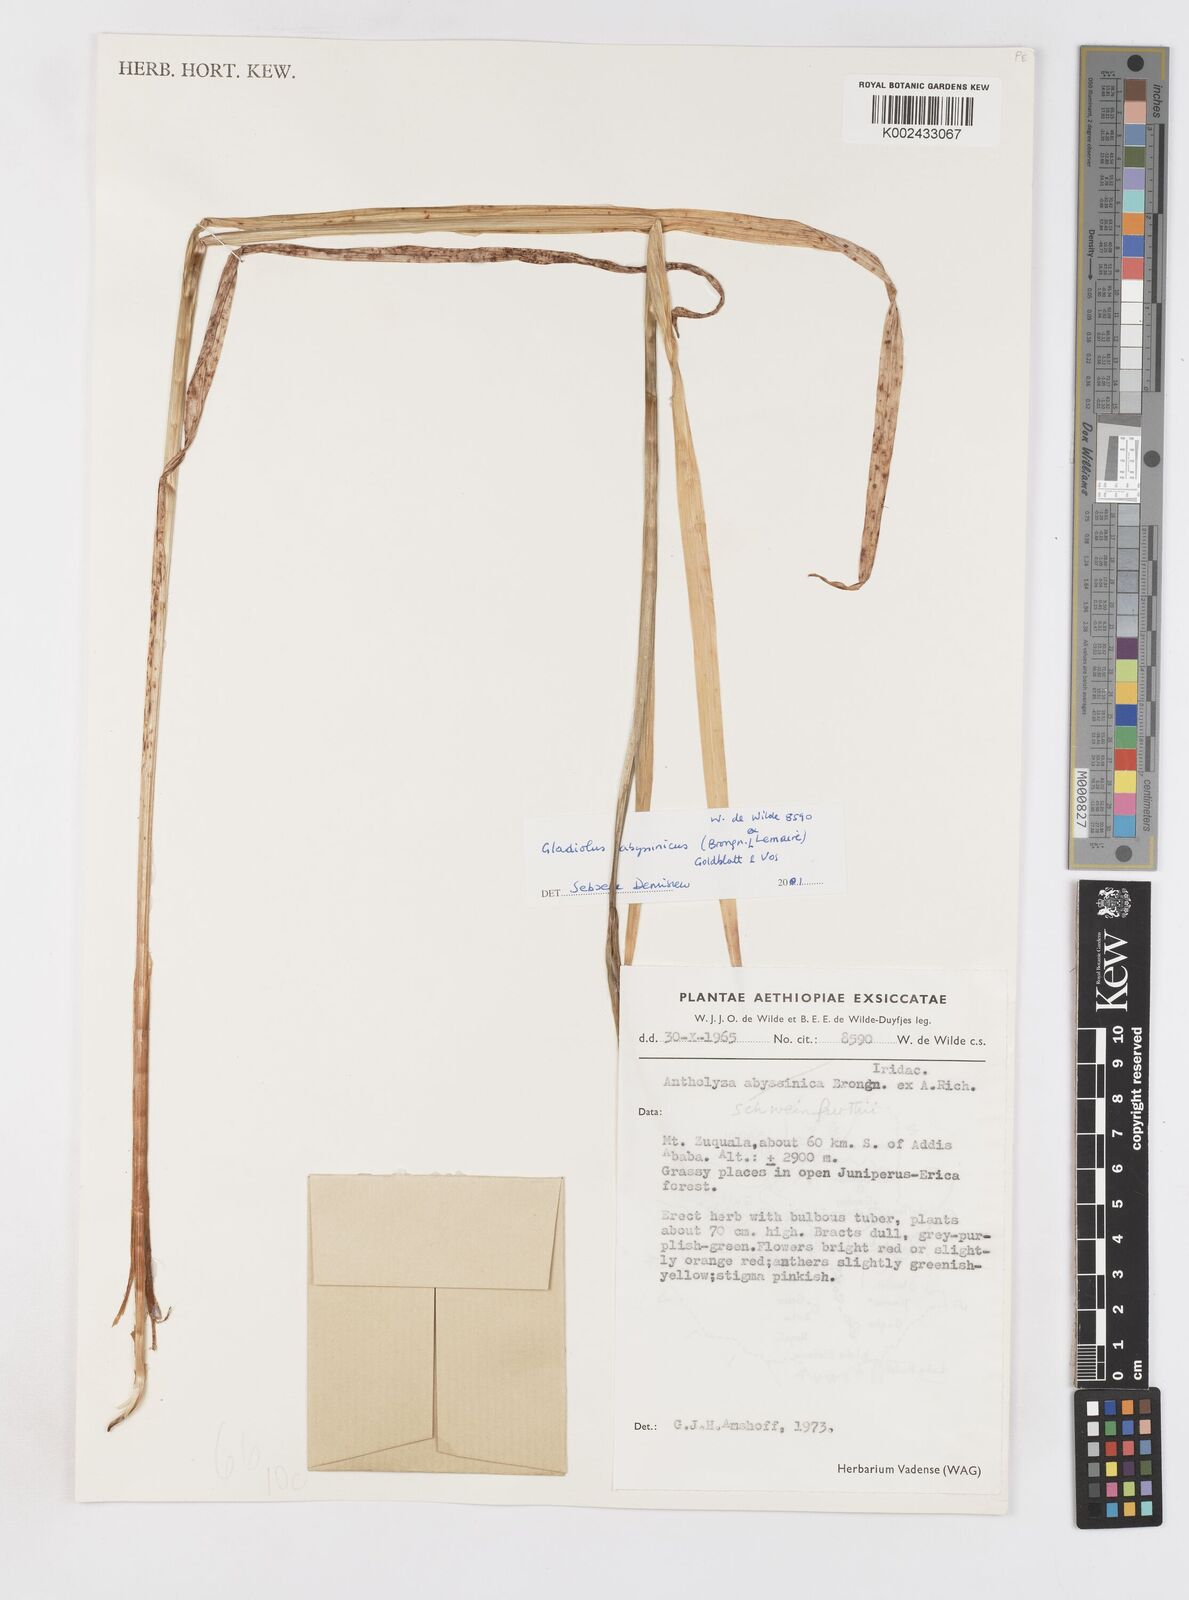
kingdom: Plantae
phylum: Tracheophyta
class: Liliopsida
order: Asparagales
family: Iridaceae
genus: Gladiolus
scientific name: Gladiolus abyssinicus
